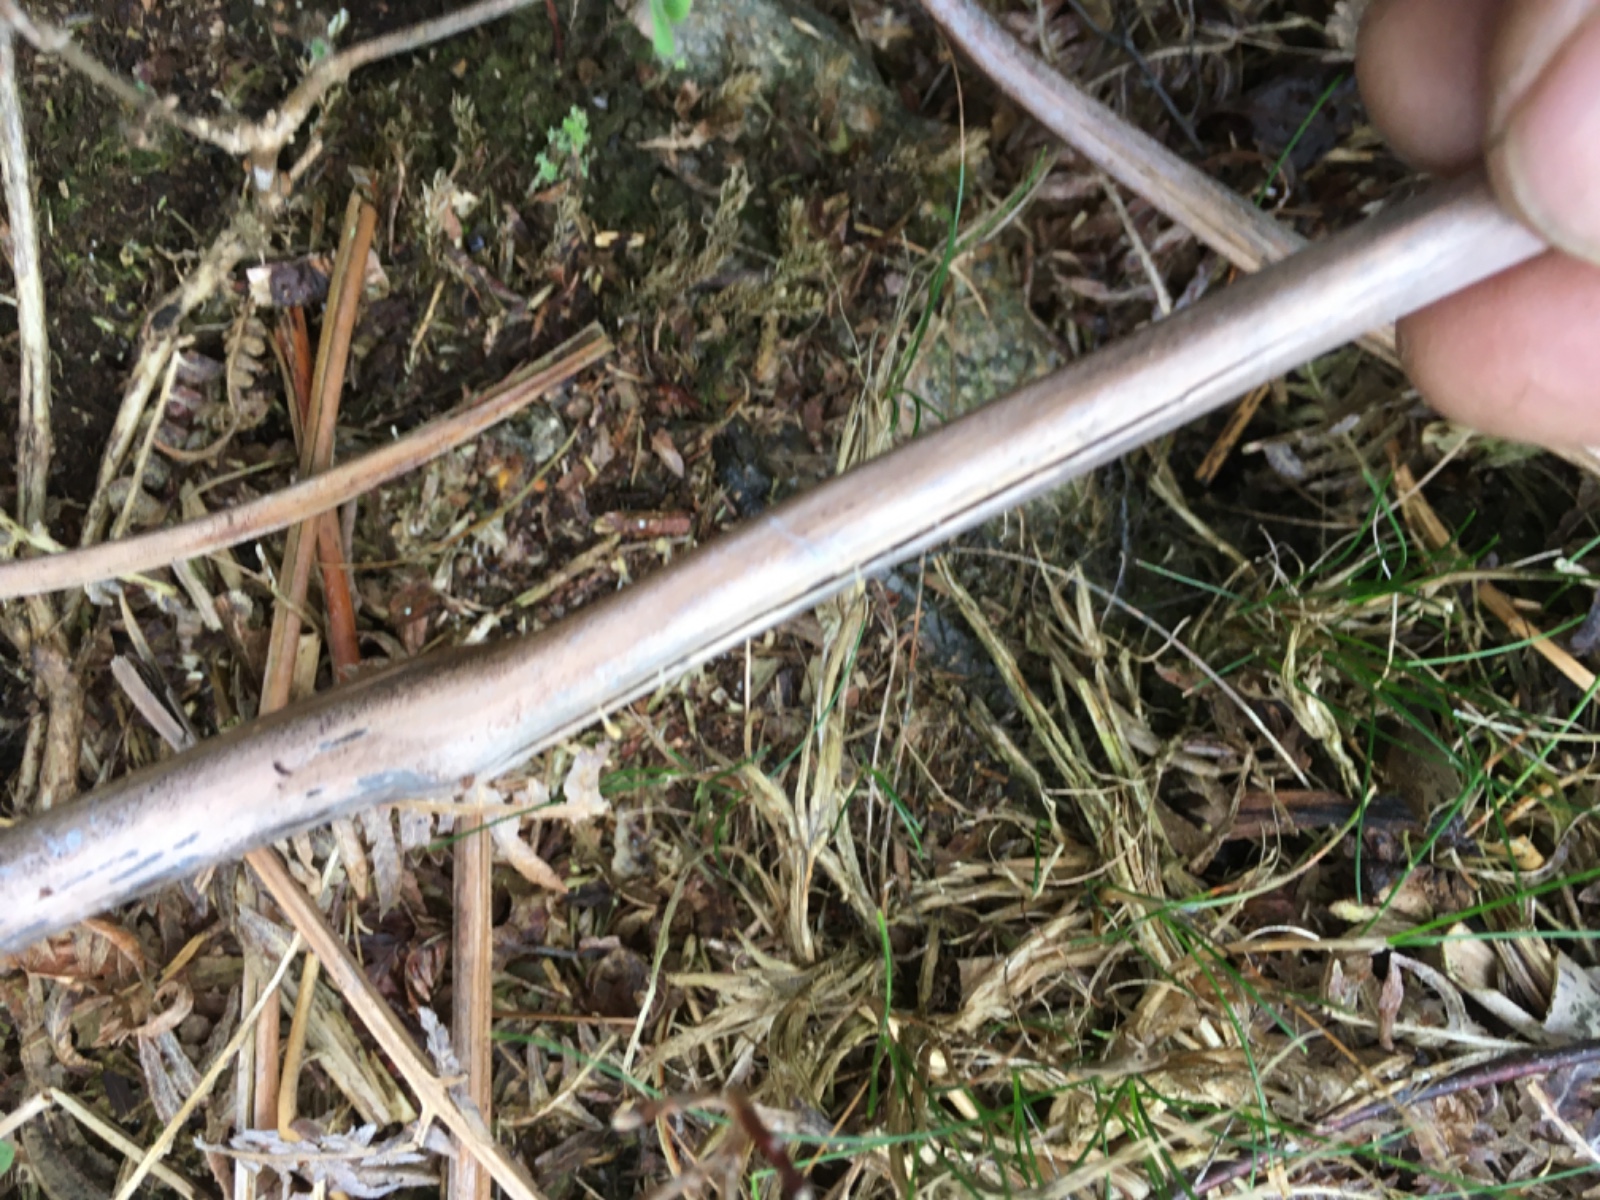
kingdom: Fungi
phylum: Basidiomycota
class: Agaricomycetes
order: Agaricales
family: Typhulaceae
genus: Typhula
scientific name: Typhula quisquiliaris
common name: ørnebregne-trådkølle
